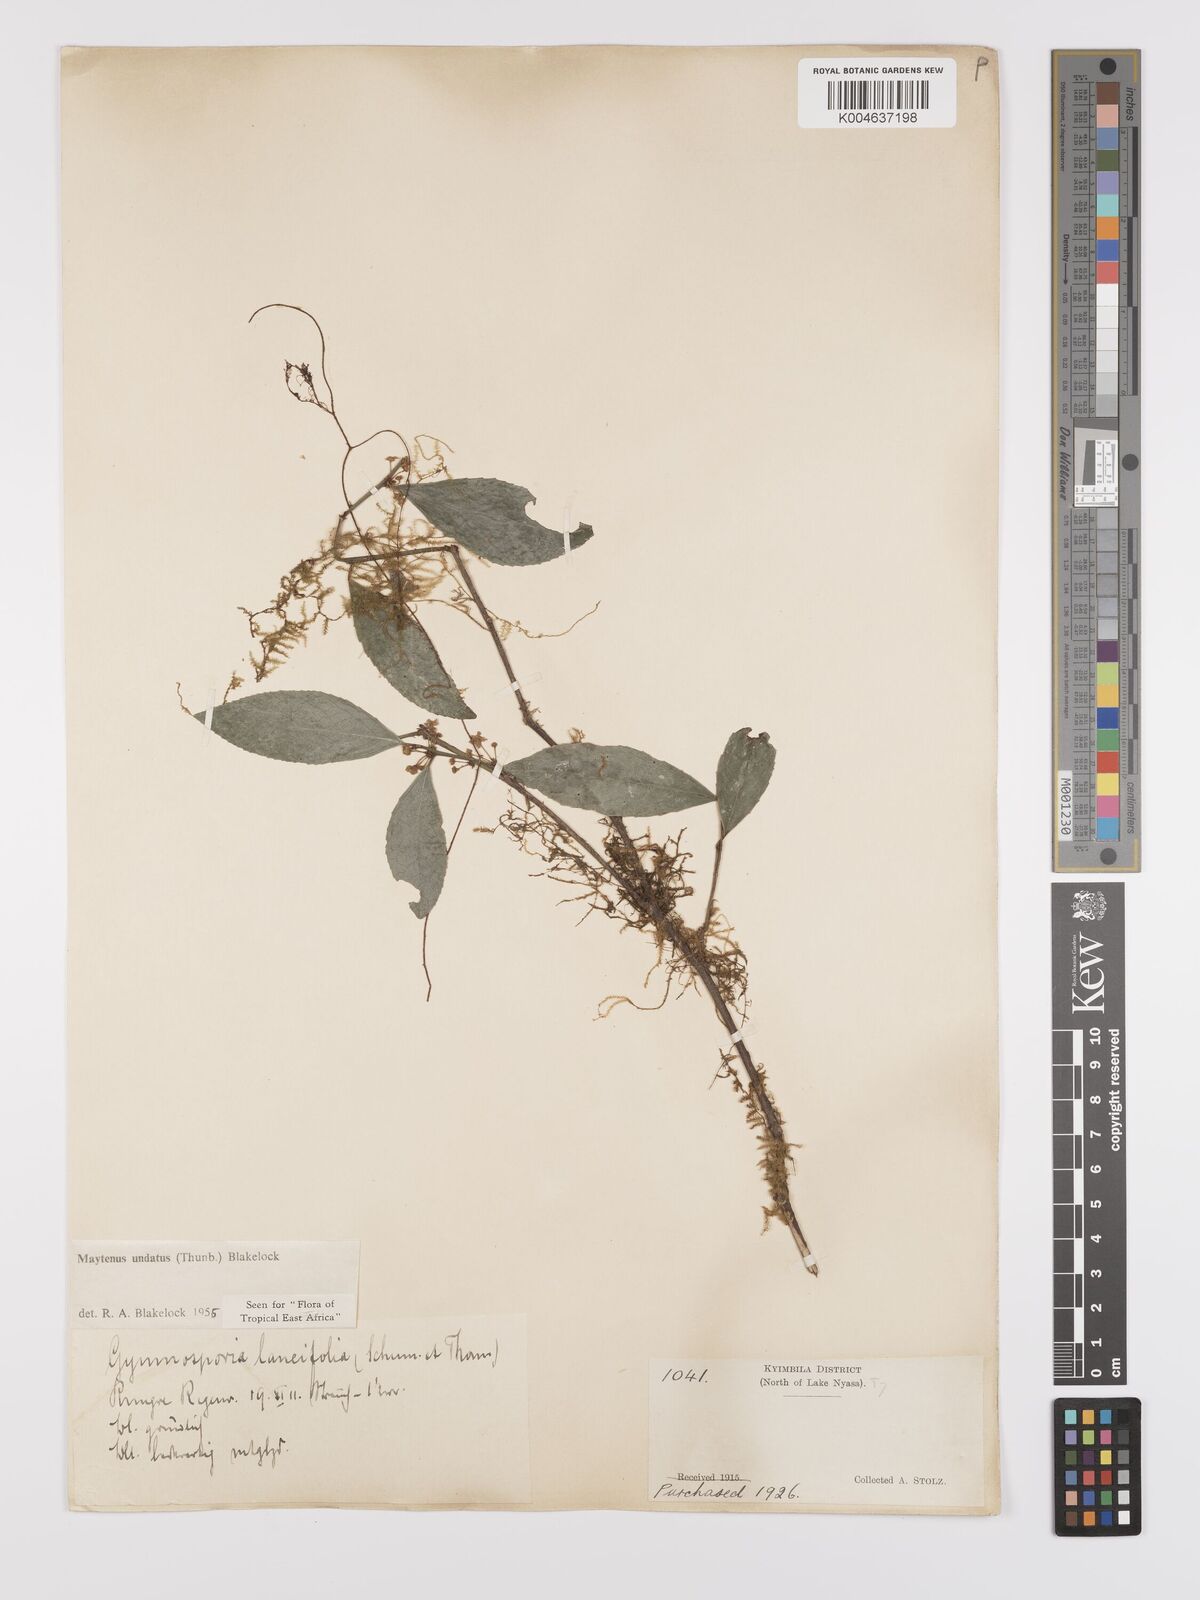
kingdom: Plantae
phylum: Tracheophyta
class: Magnoliopsida
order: Celastrales
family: Celastraceae
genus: Gymnosporia
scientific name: Gymnosporia undata
